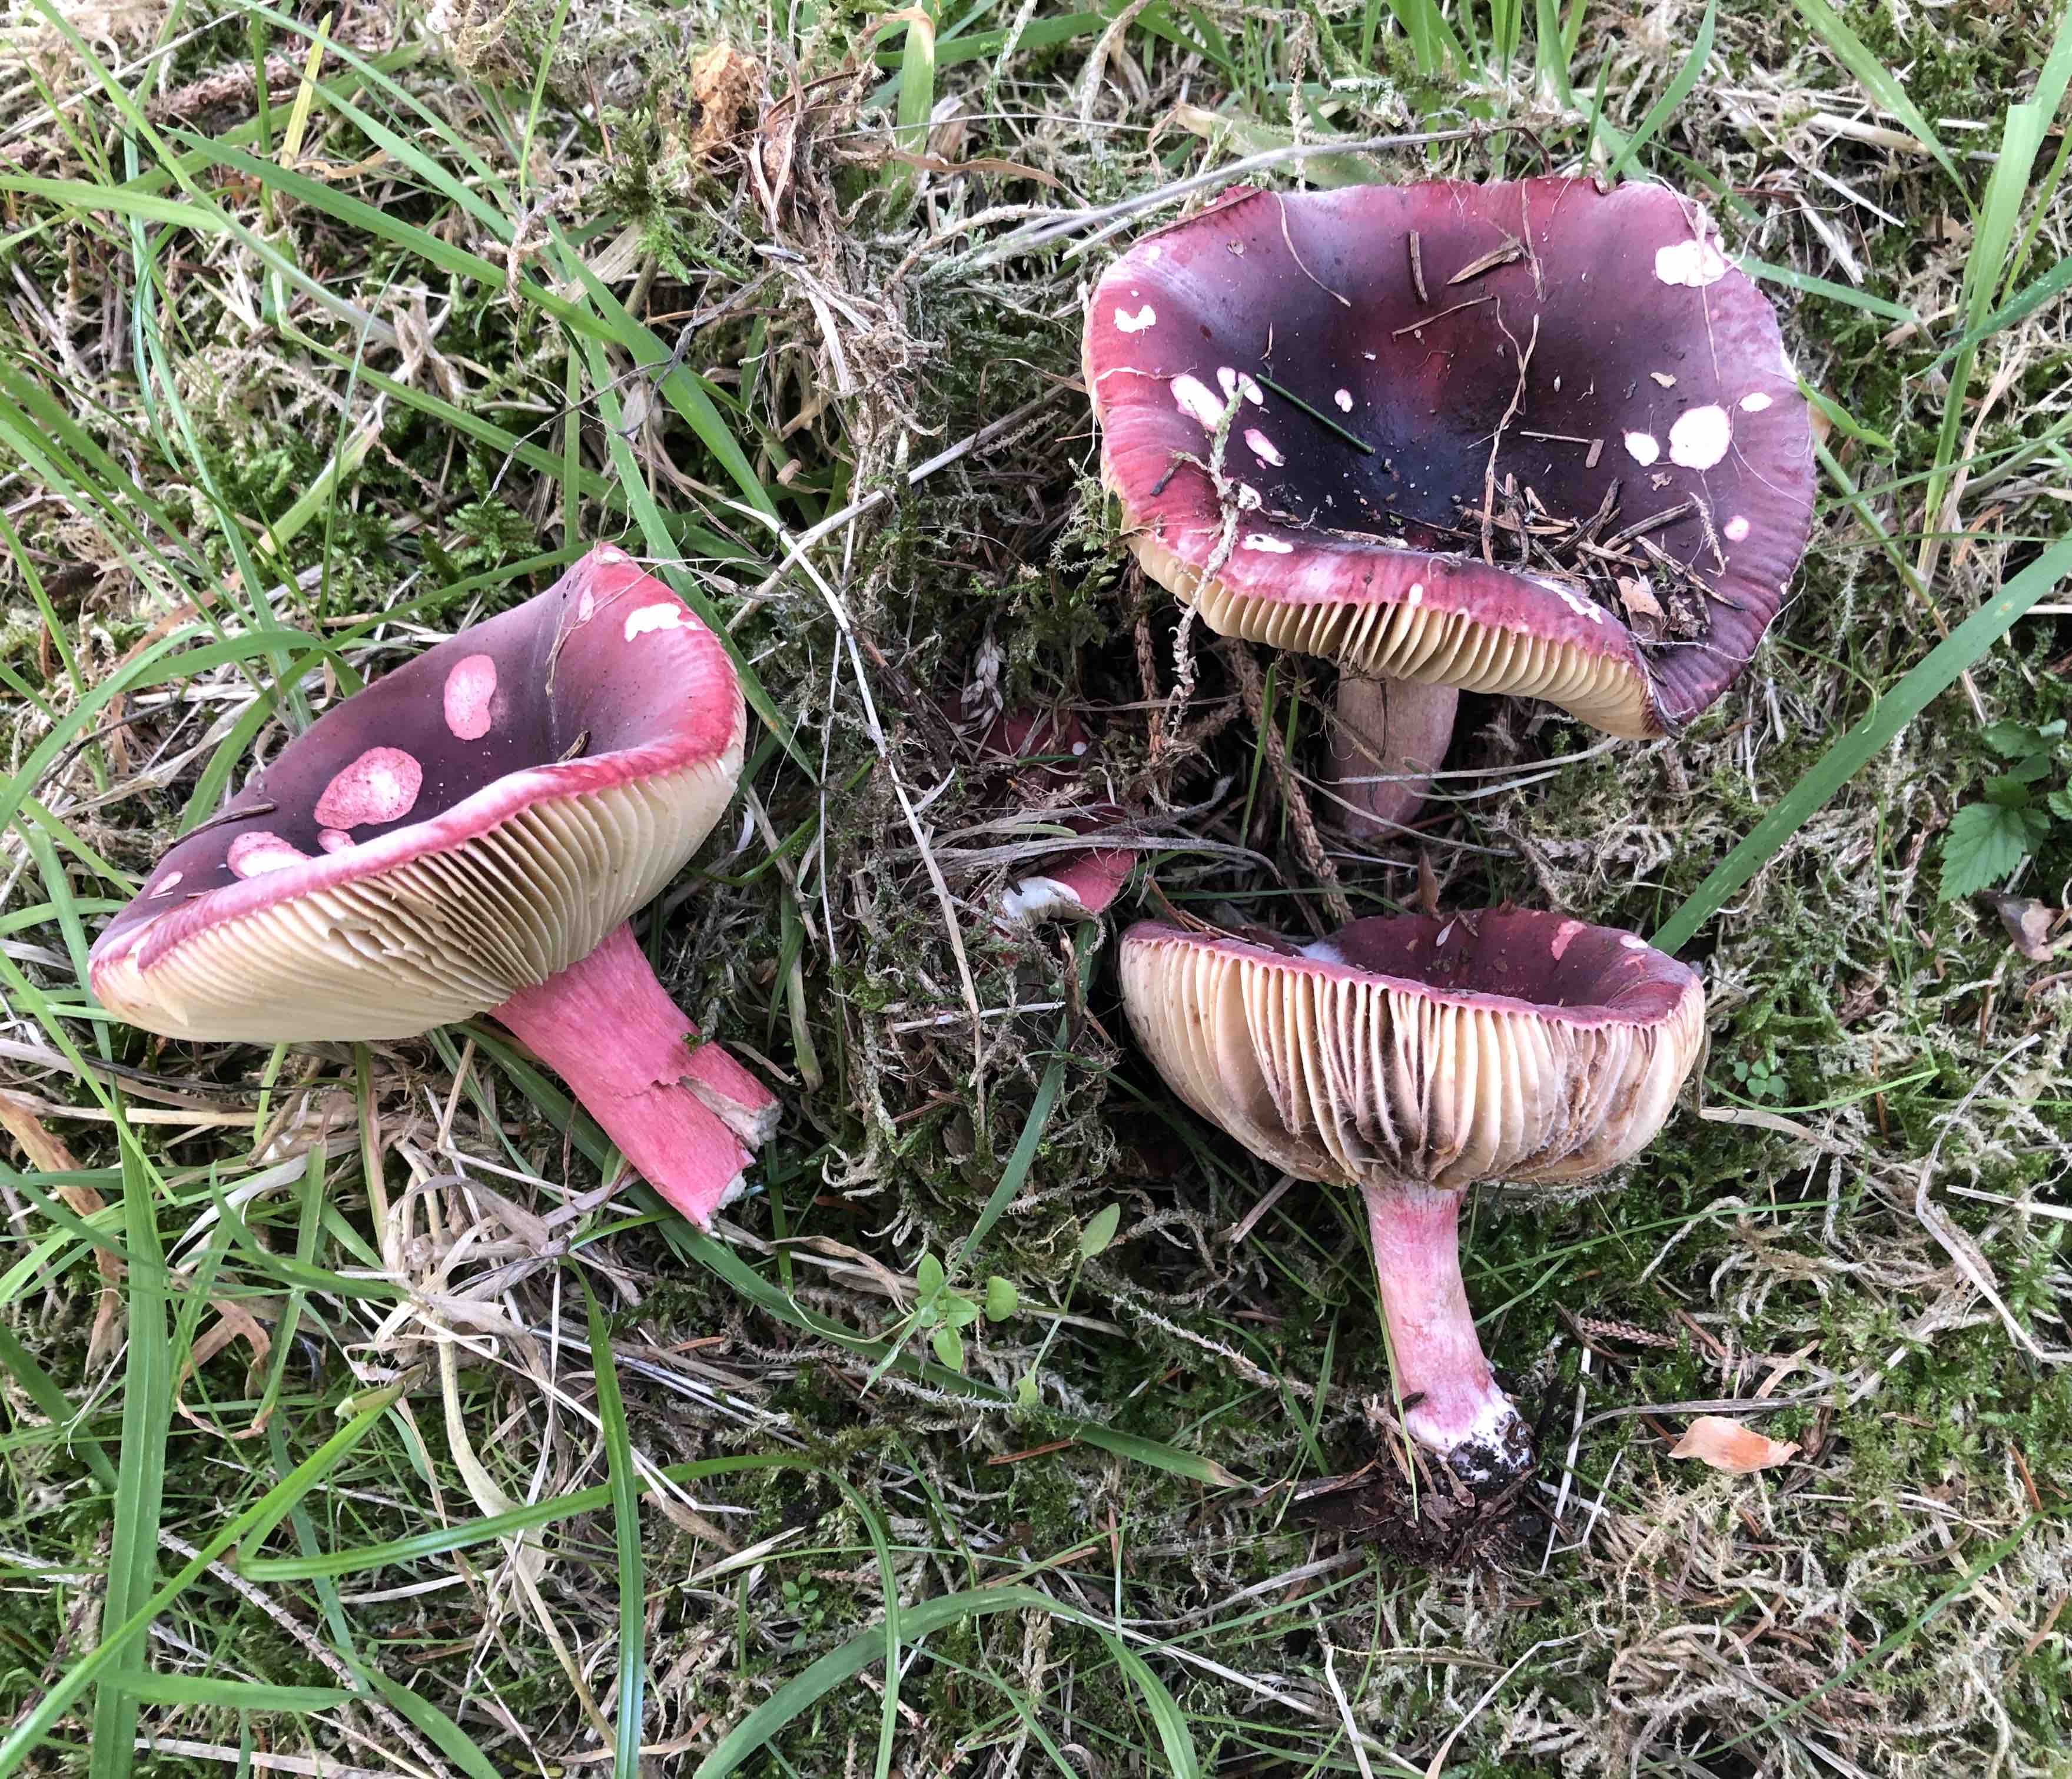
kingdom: Fungi
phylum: Basidiomycota
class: Agaricomycetes
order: Russulales
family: Russulaceae
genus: Russula
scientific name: Russula xerampelina
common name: hummer-skørhat
